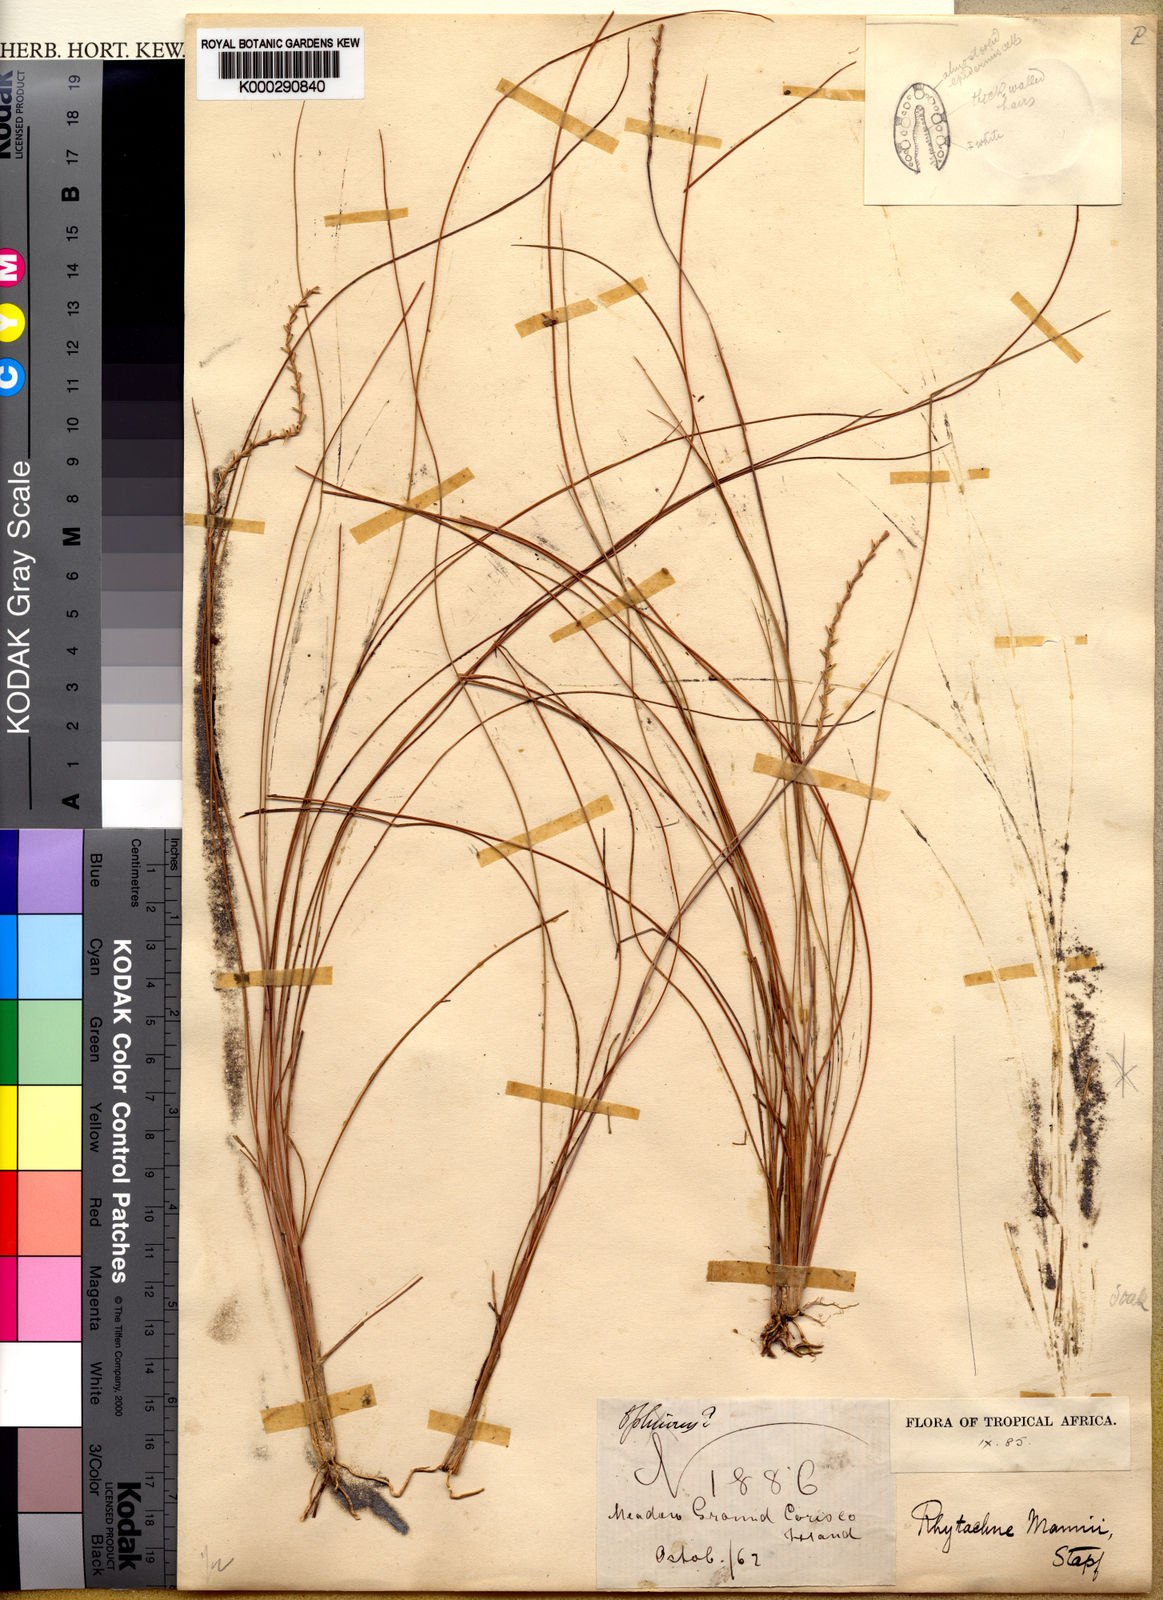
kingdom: Plantae
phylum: Tracheophyta
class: Liliopsida
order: Poales
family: Poaceae
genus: Rhytachne
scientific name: Rhytachne rottboellioides
